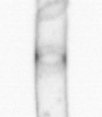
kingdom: Chromista
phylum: Ochrophyta
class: Bacillariophyceae
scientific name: Bacillariophyceae
